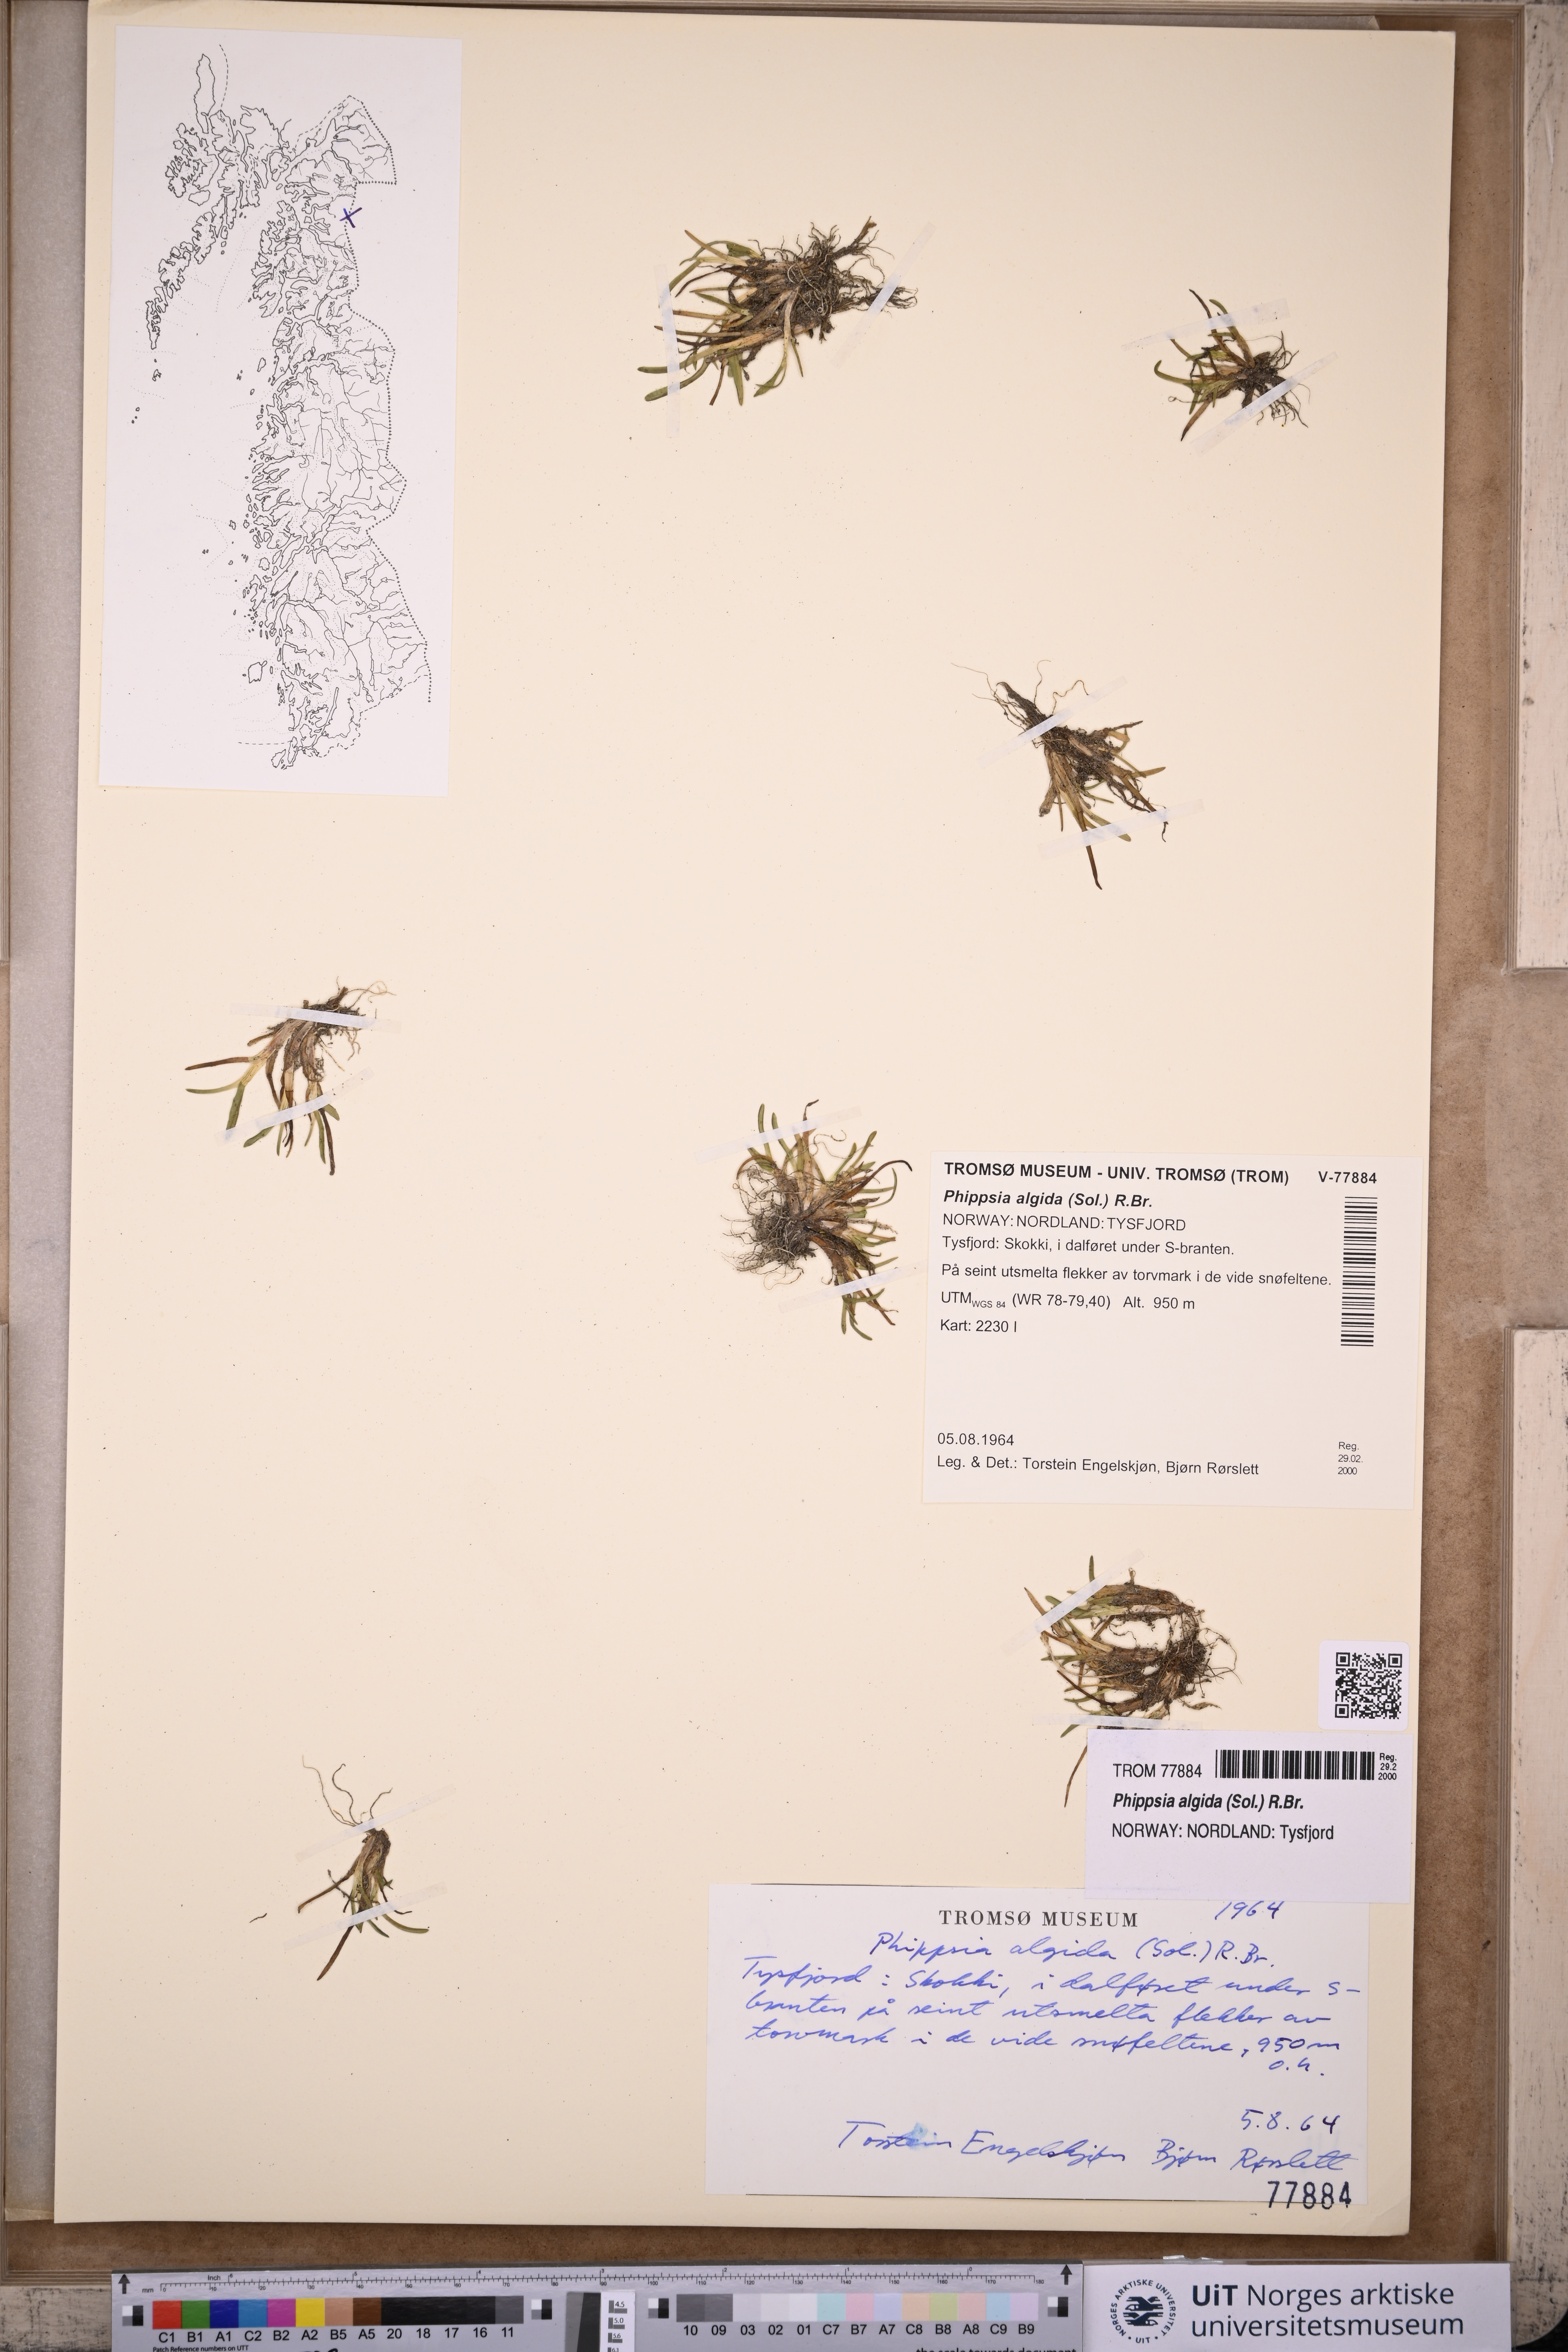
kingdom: Plantae
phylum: Tracheophyta
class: Liliopsida
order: Poales
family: Poaceae
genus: Phippsia
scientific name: Phippsia algida
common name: Ice grass
